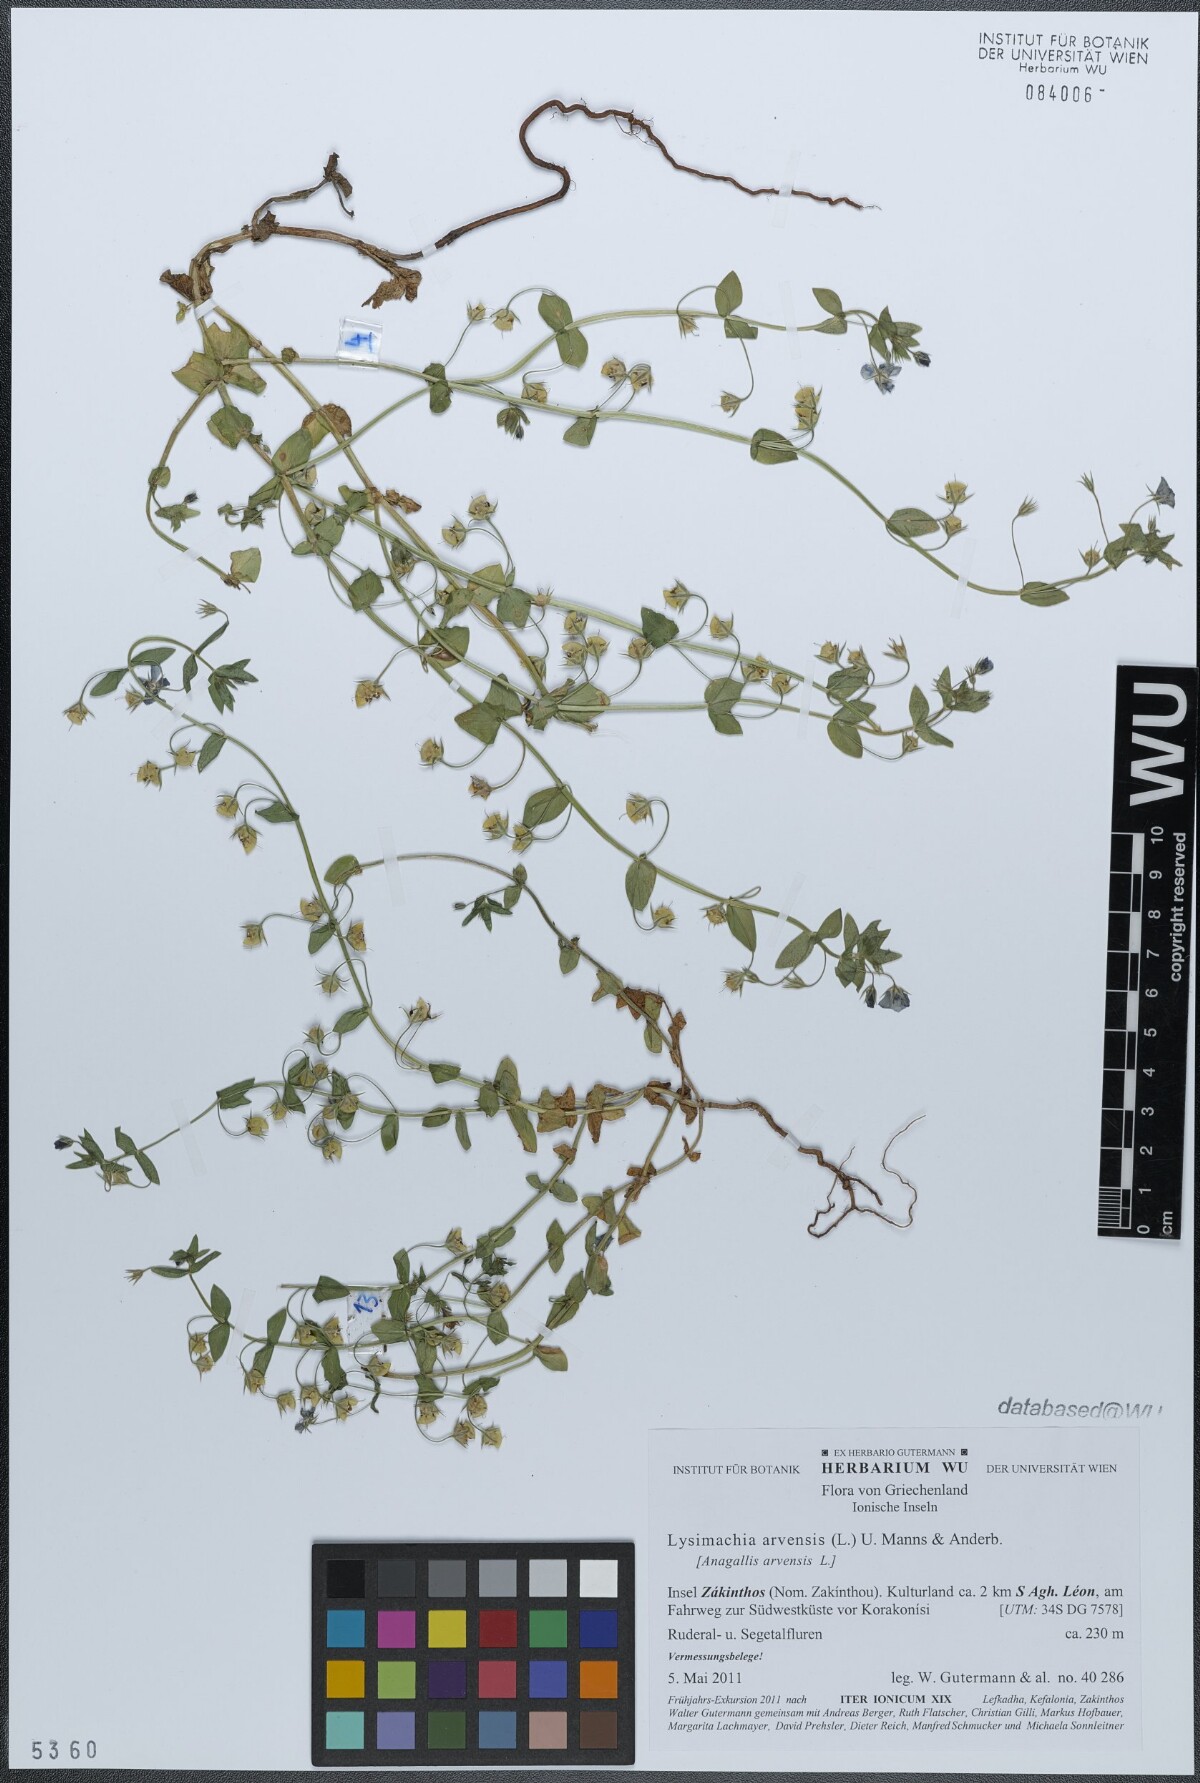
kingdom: Plantae
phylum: Tracheophyta
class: Magnoliopsida
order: Ericales
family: Primulaceae
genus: Lysimachia
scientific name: Lysimachia arvensis
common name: Scarlet pimpernel
